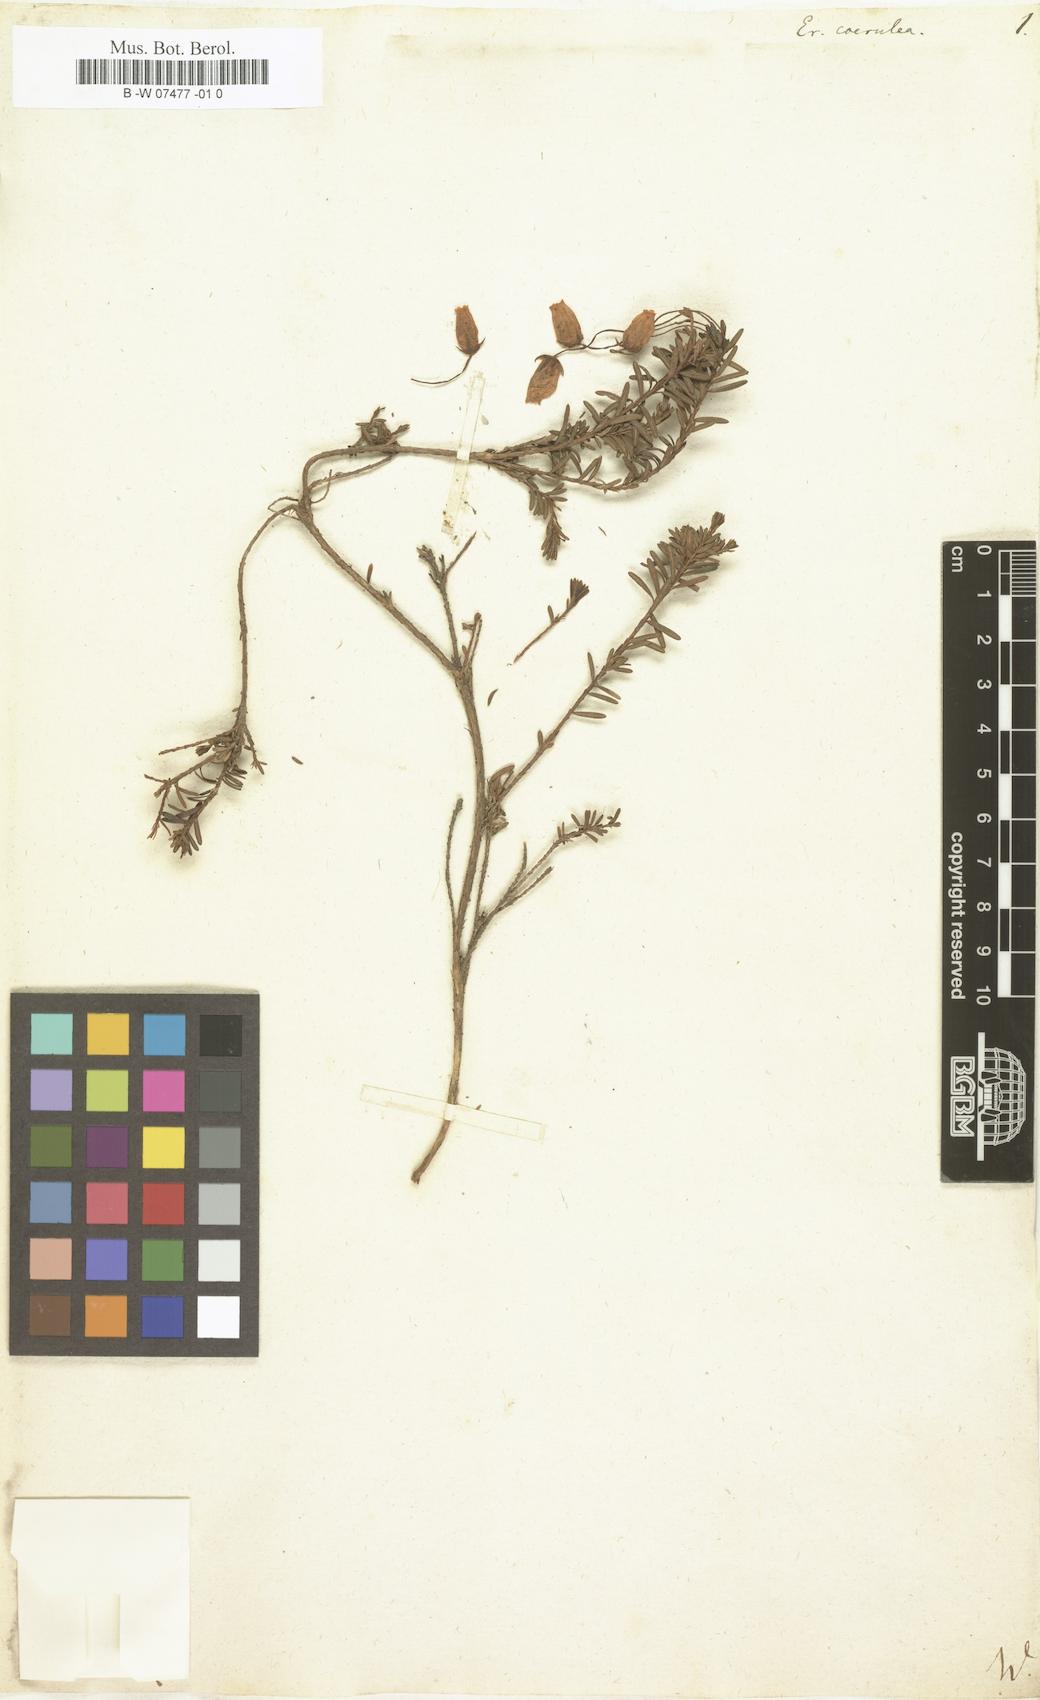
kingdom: Plantae
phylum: Tracheophyta
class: Magnoliopsida
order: Ericales
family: Ericaceae
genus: Phyllodoce
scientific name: Phyllodoce caerulea
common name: Blue heath
